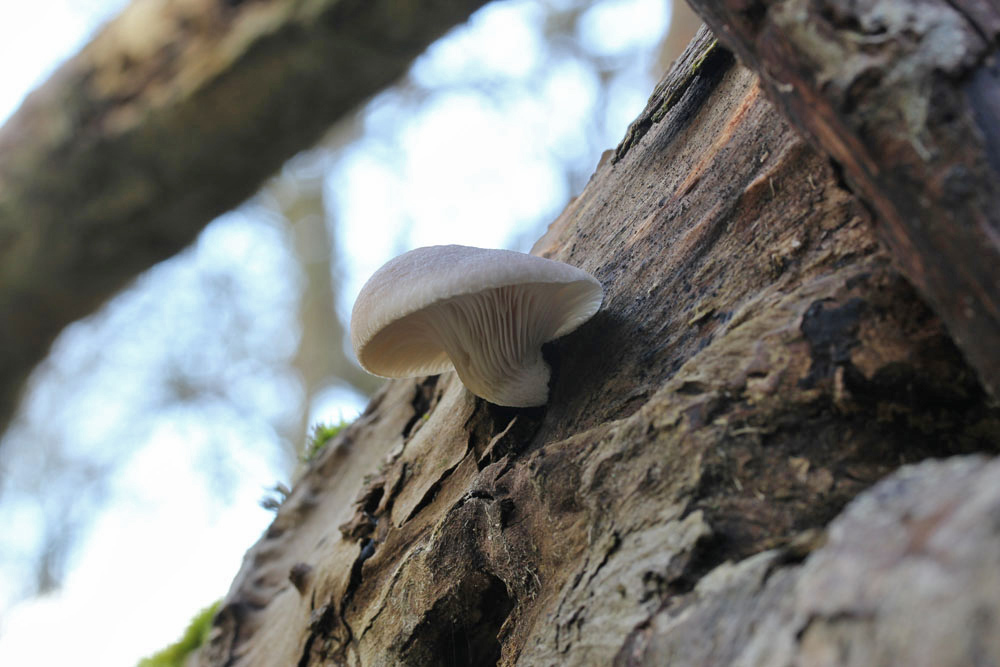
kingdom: Fungi
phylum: Basidiomycota
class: Agaricomycetes
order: Agaricales
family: Pleurotaceae
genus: Pleurotus
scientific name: Pleurotus ostreatus
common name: Oyster mushroom
